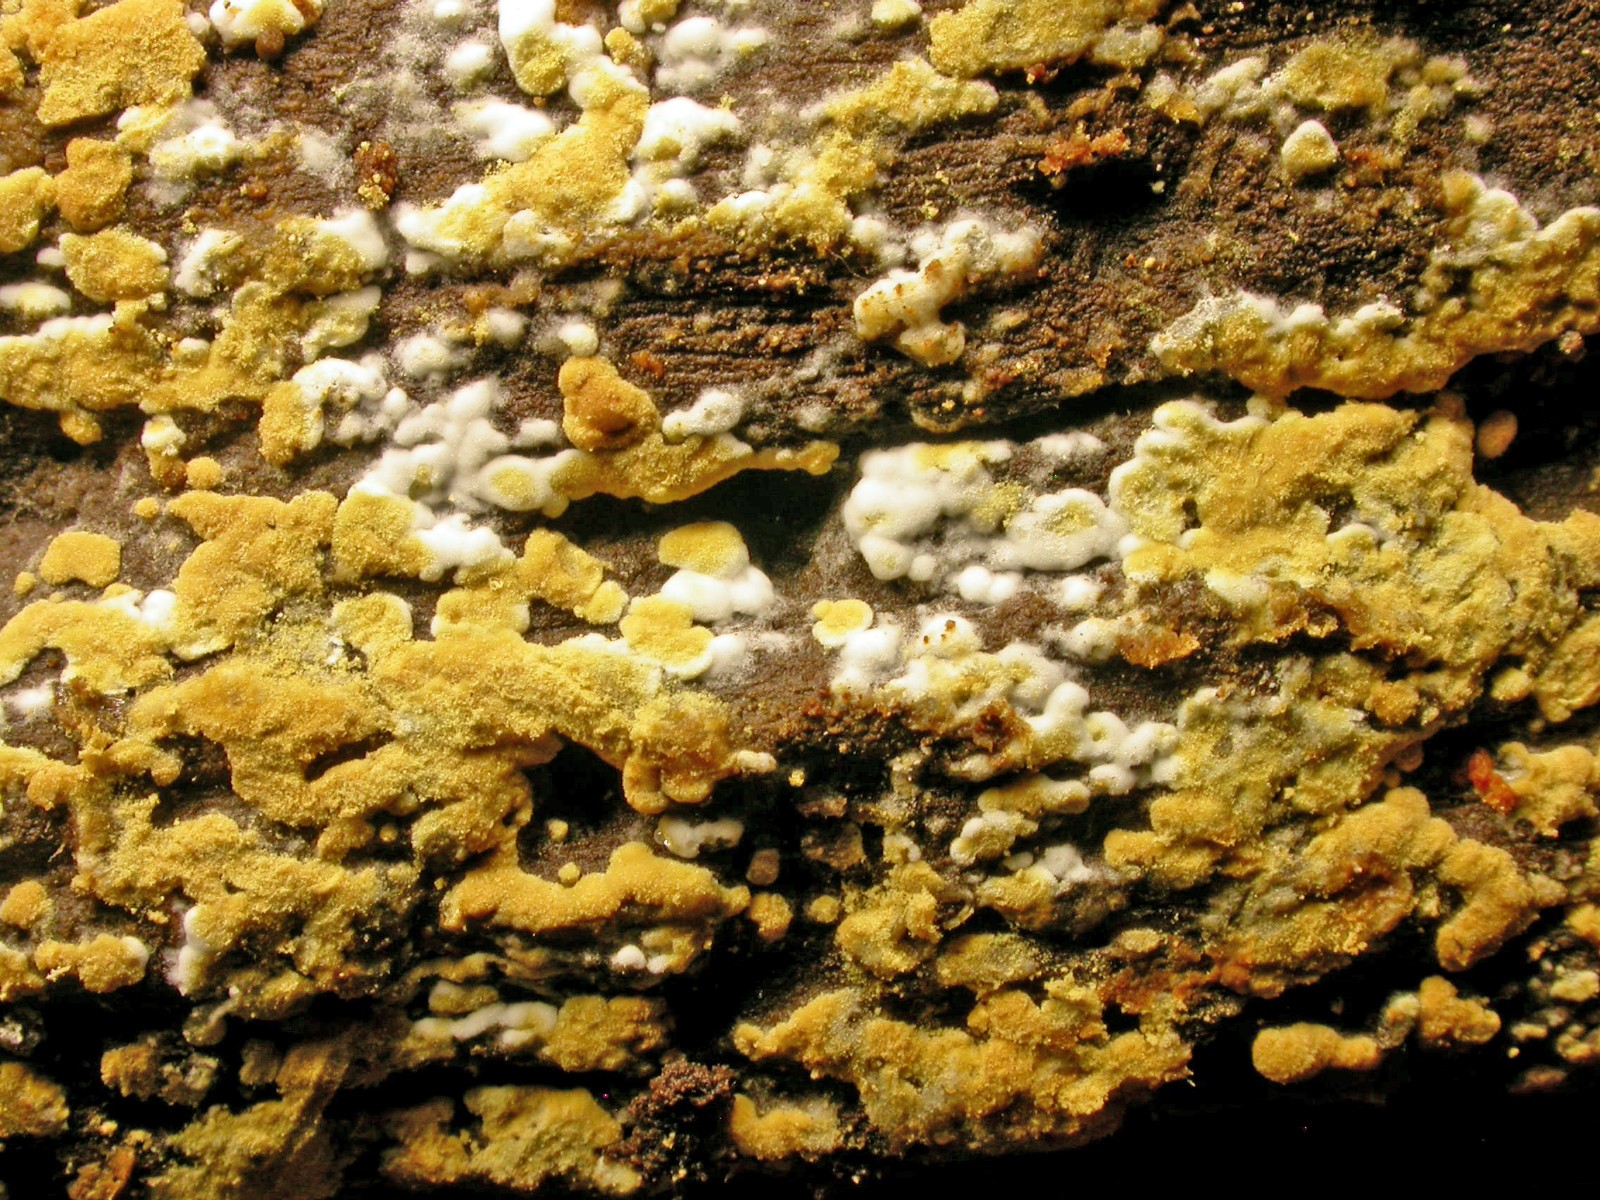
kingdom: Fungi
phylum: Basidiomycota
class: Agaricomycetes
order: Cantharellales
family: Botryobasidiaceae
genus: Botryobasidium
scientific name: Botryobasidium aureum
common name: gylden spindhinde
